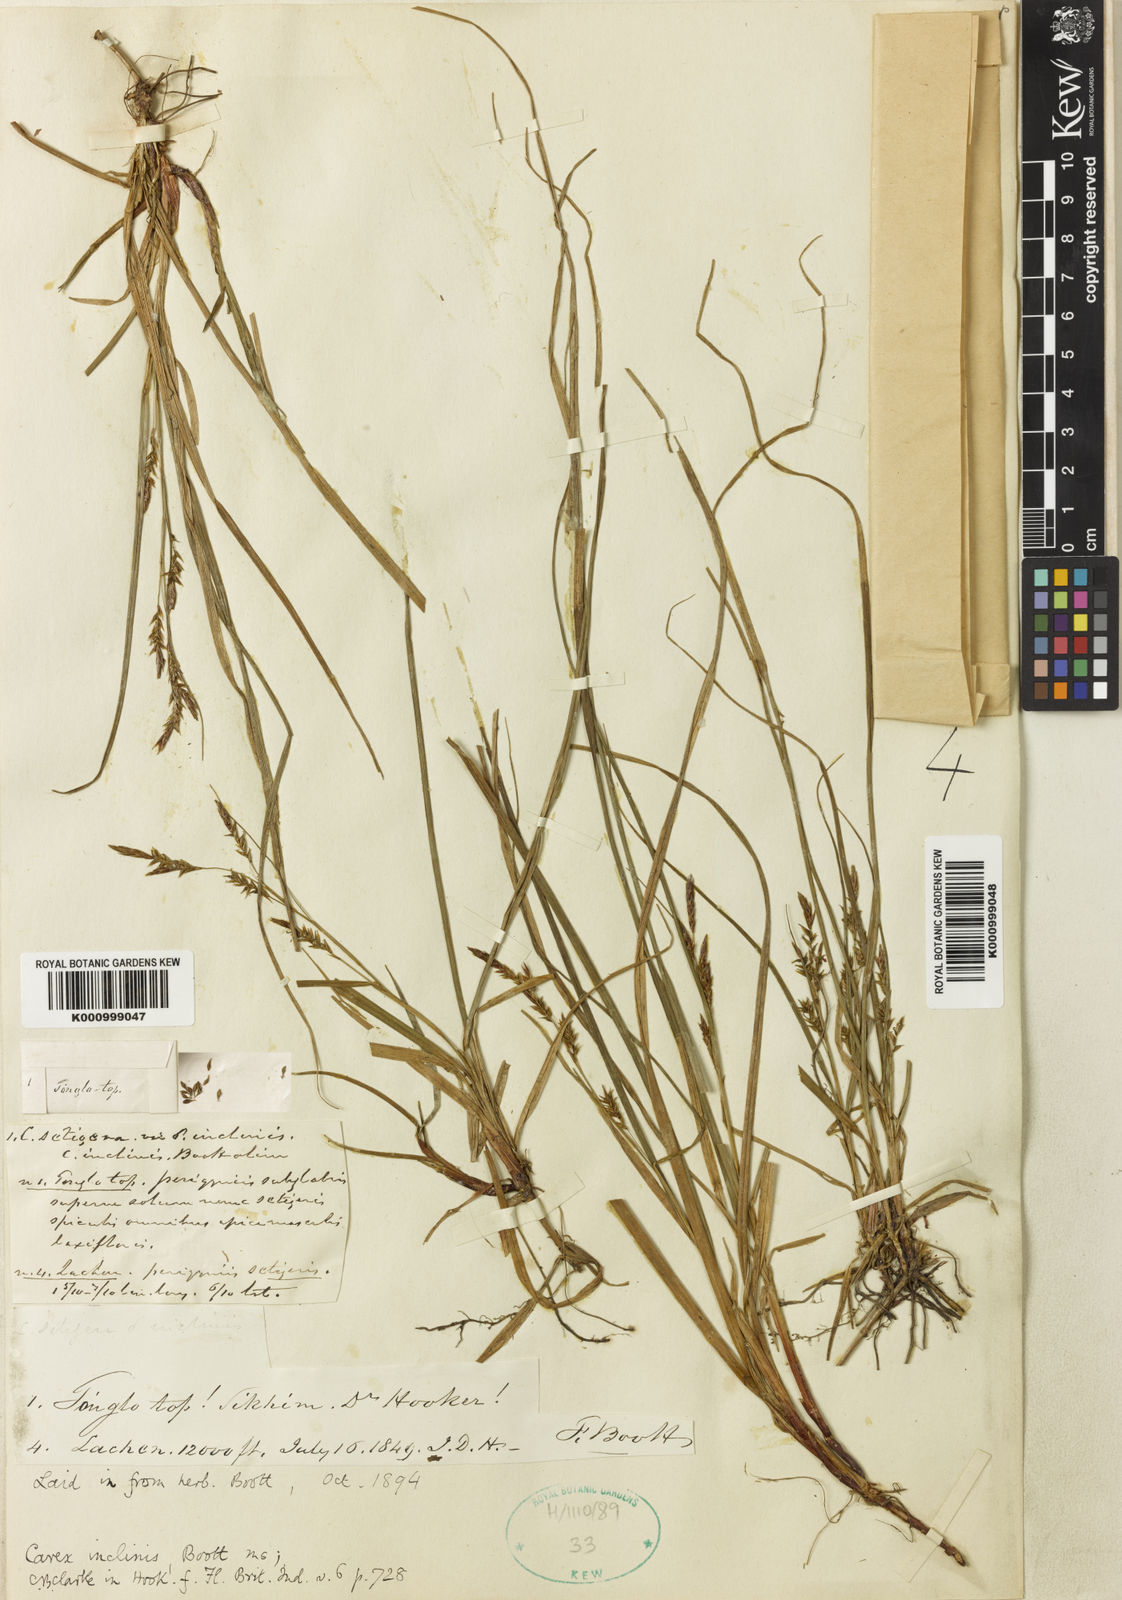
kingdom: Plantae
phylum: Tracheophyta
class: Liliopsida
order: Poales
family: Cyperaceae
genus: Carex
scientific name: Carex inclinis
